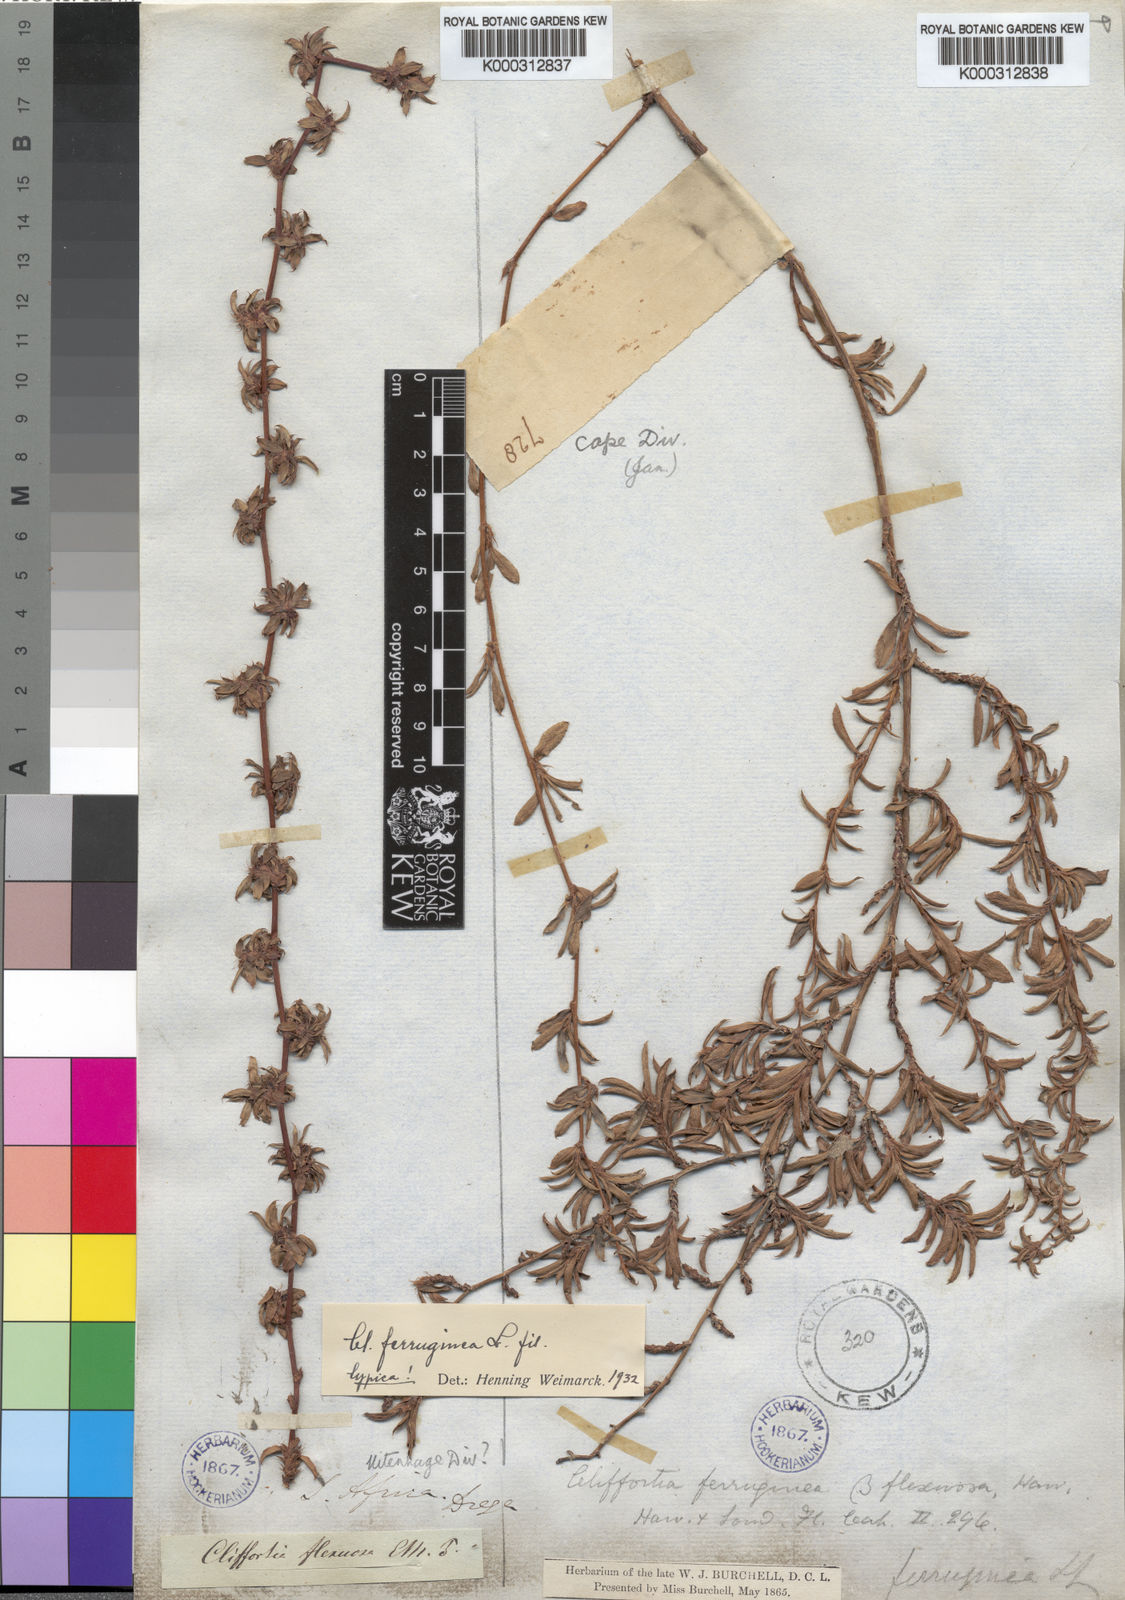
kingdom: Plantae
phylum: Tracheophyta
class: Magnoliopsida
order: Rosales
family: Rosaceae
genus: Cliffortia
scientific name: Cliffortia
